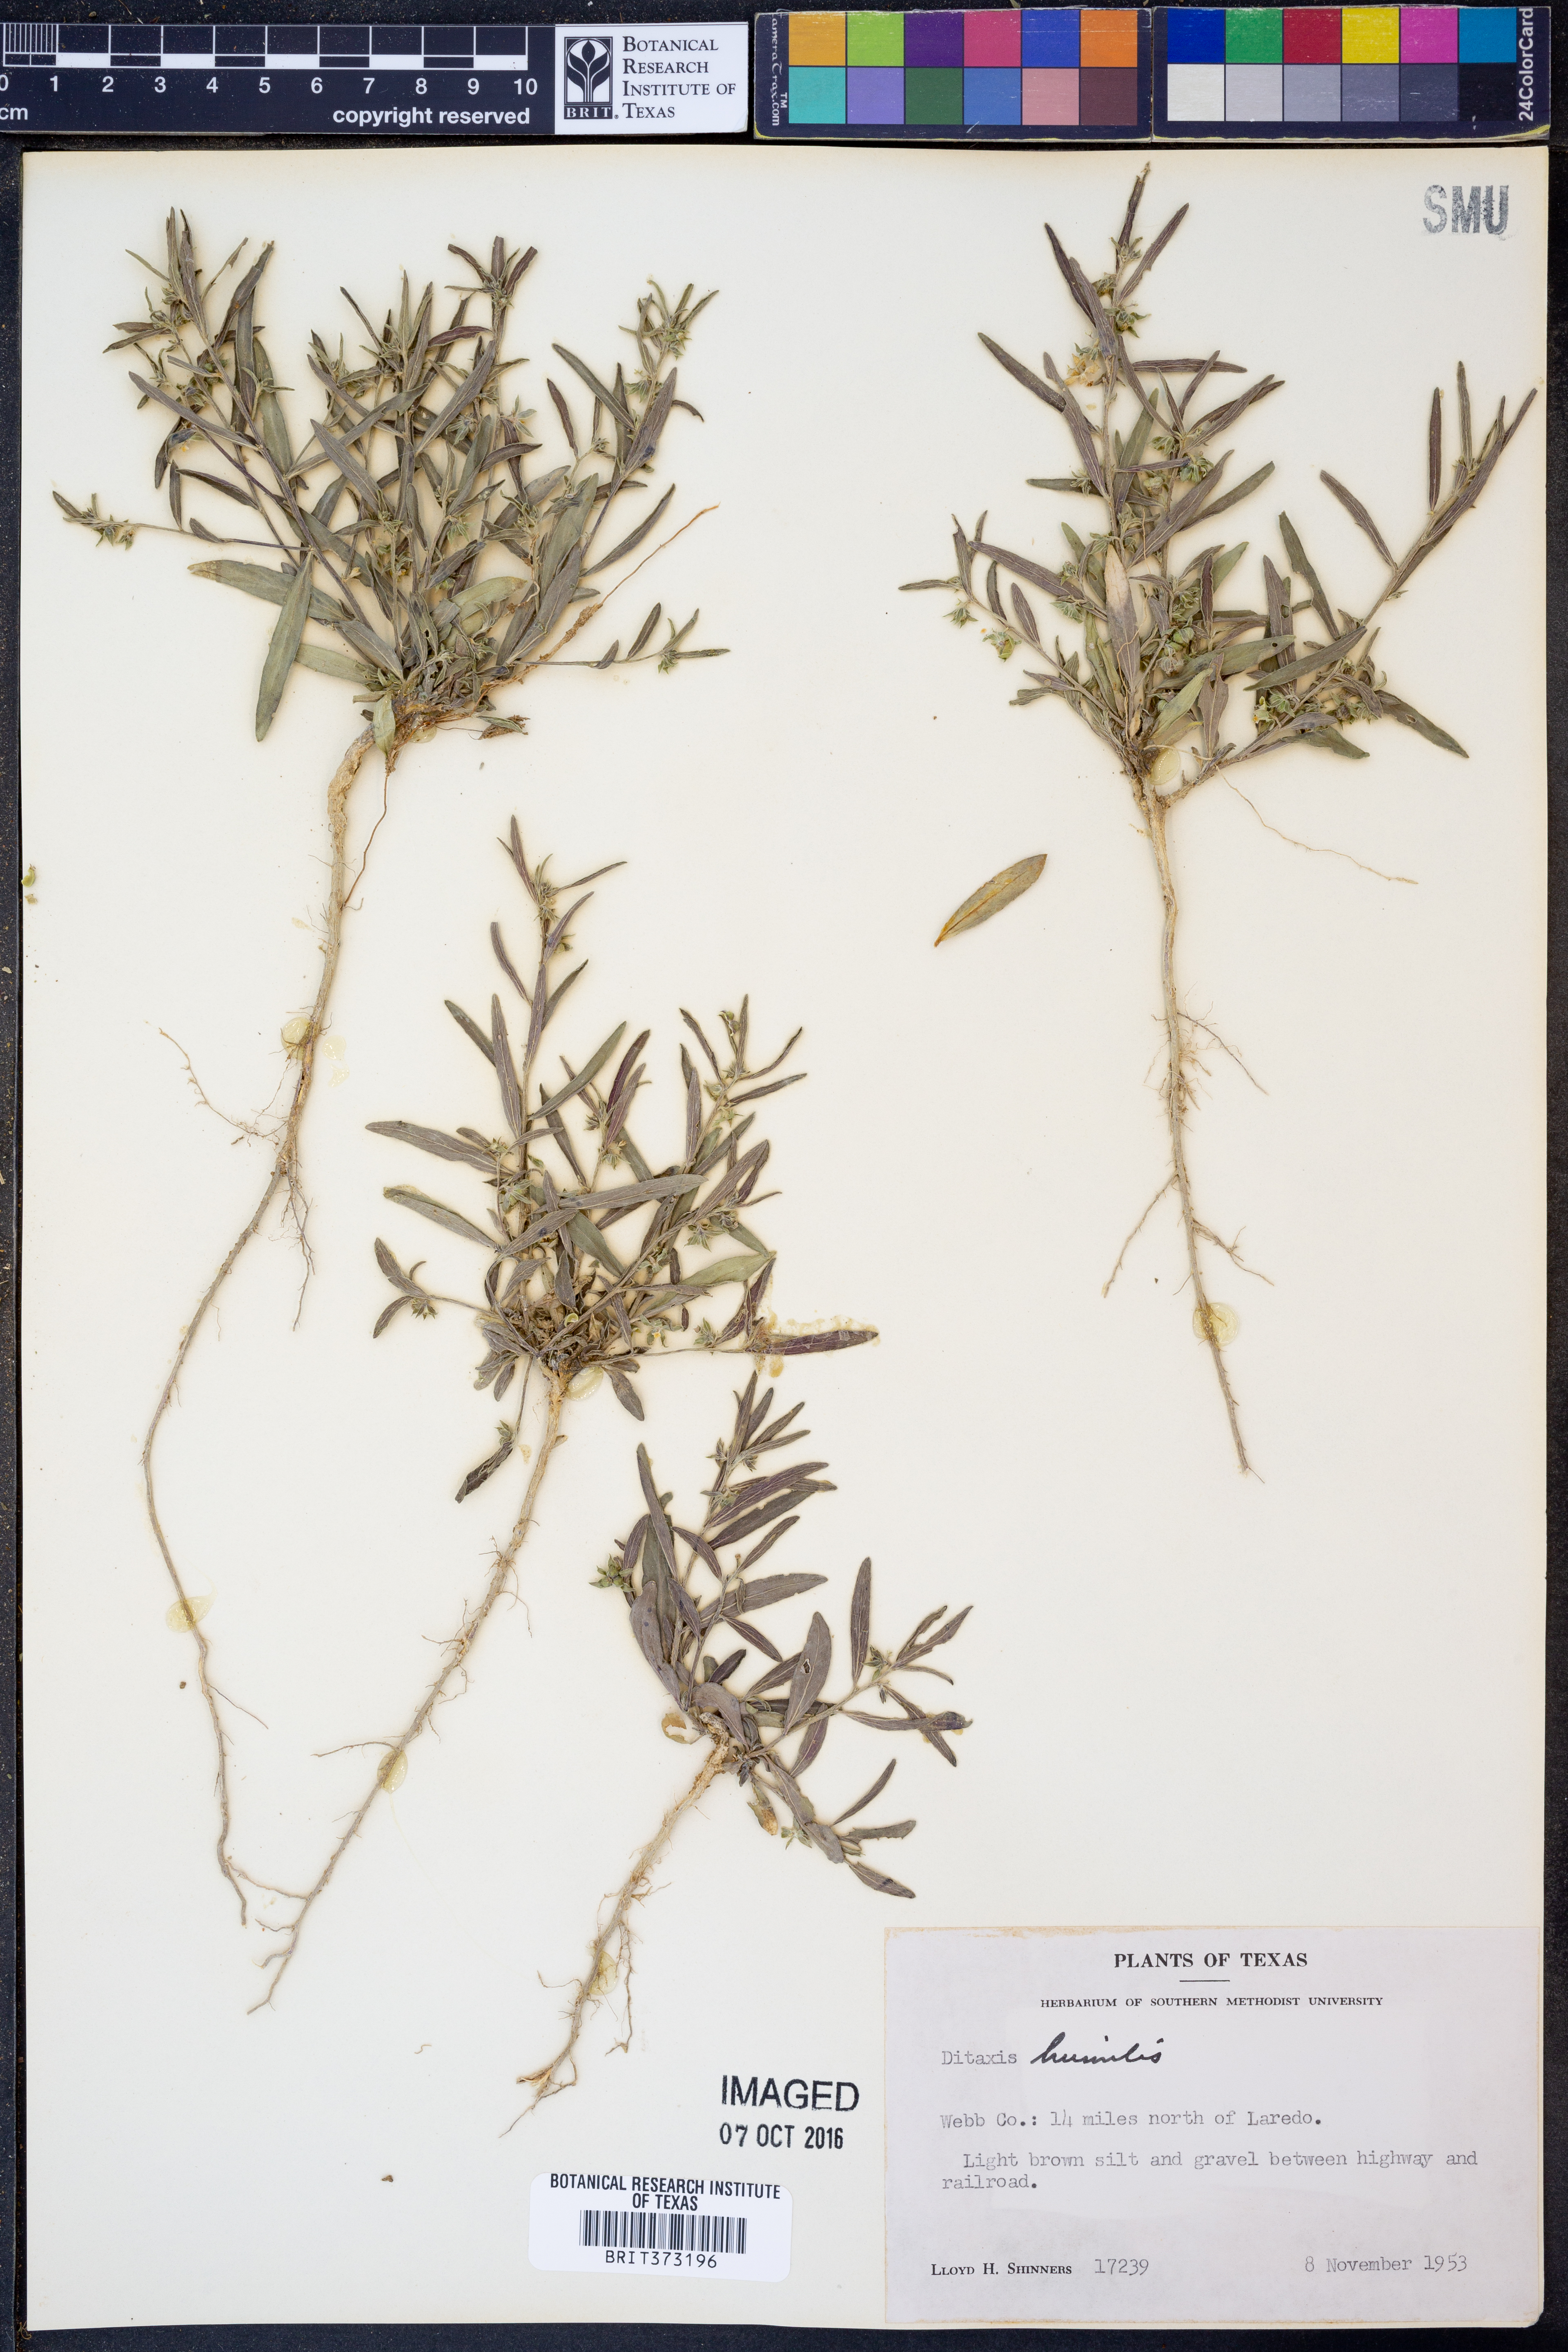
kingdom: Plantae
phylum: Tracheophyta
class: Magnoliopsida
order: Malpighiales
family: Euphorbiaceae
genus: Ditaxis
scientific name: Ditaxis humilis
